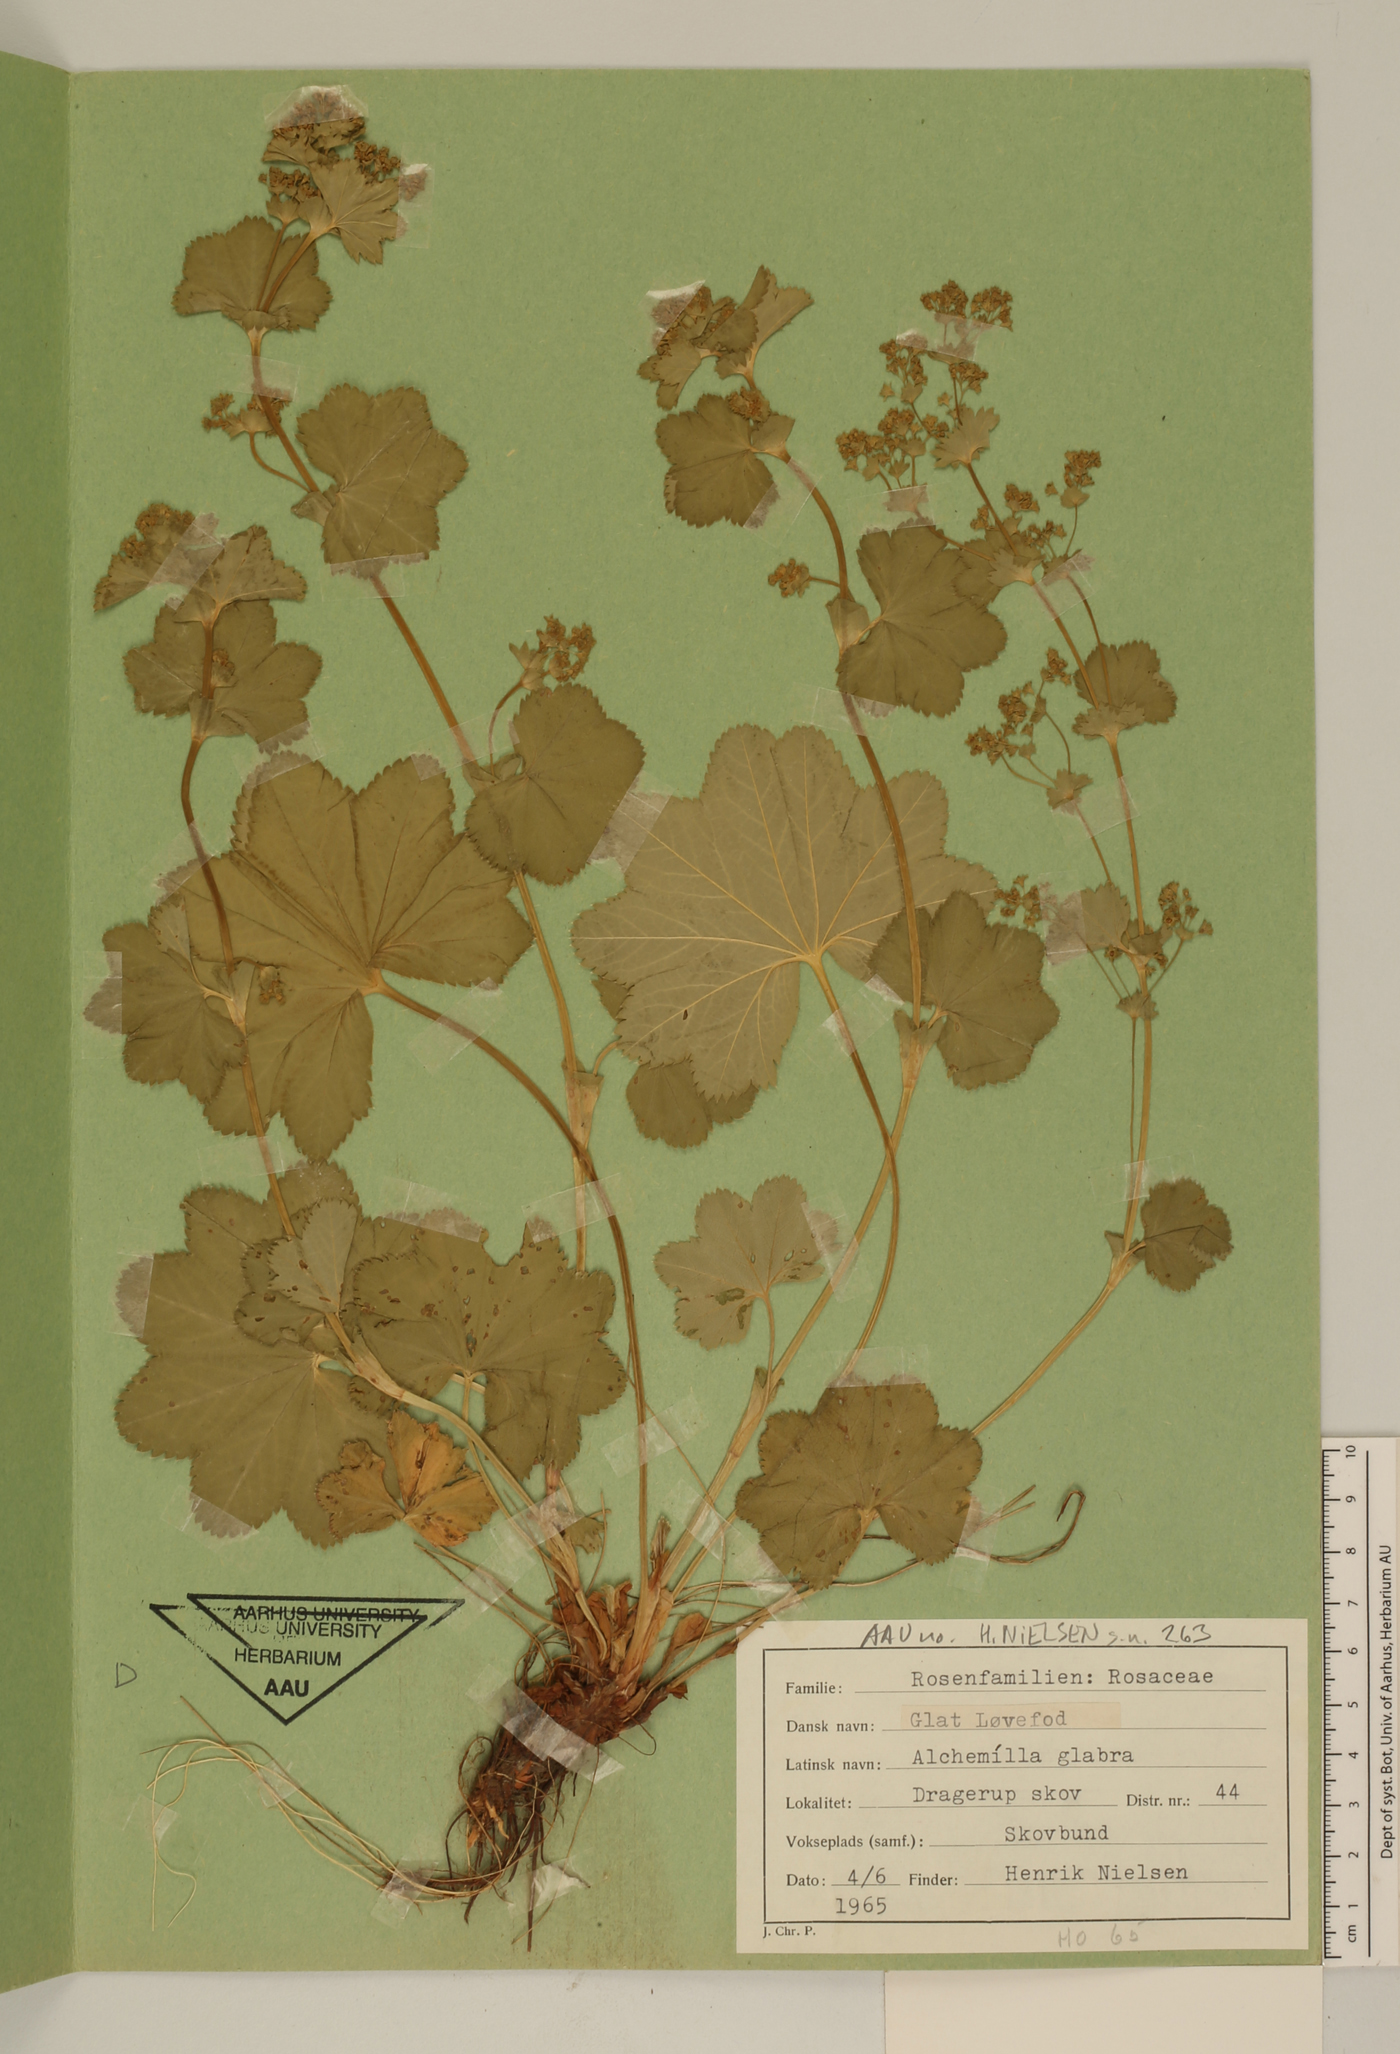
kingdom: Plantae
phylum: Tracheophyta
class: Magnoliopsida
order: Rosales
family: Rosaceae
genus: Alchemilla
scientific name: Alchemilla glabra
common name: Smooth lady's-mantle
